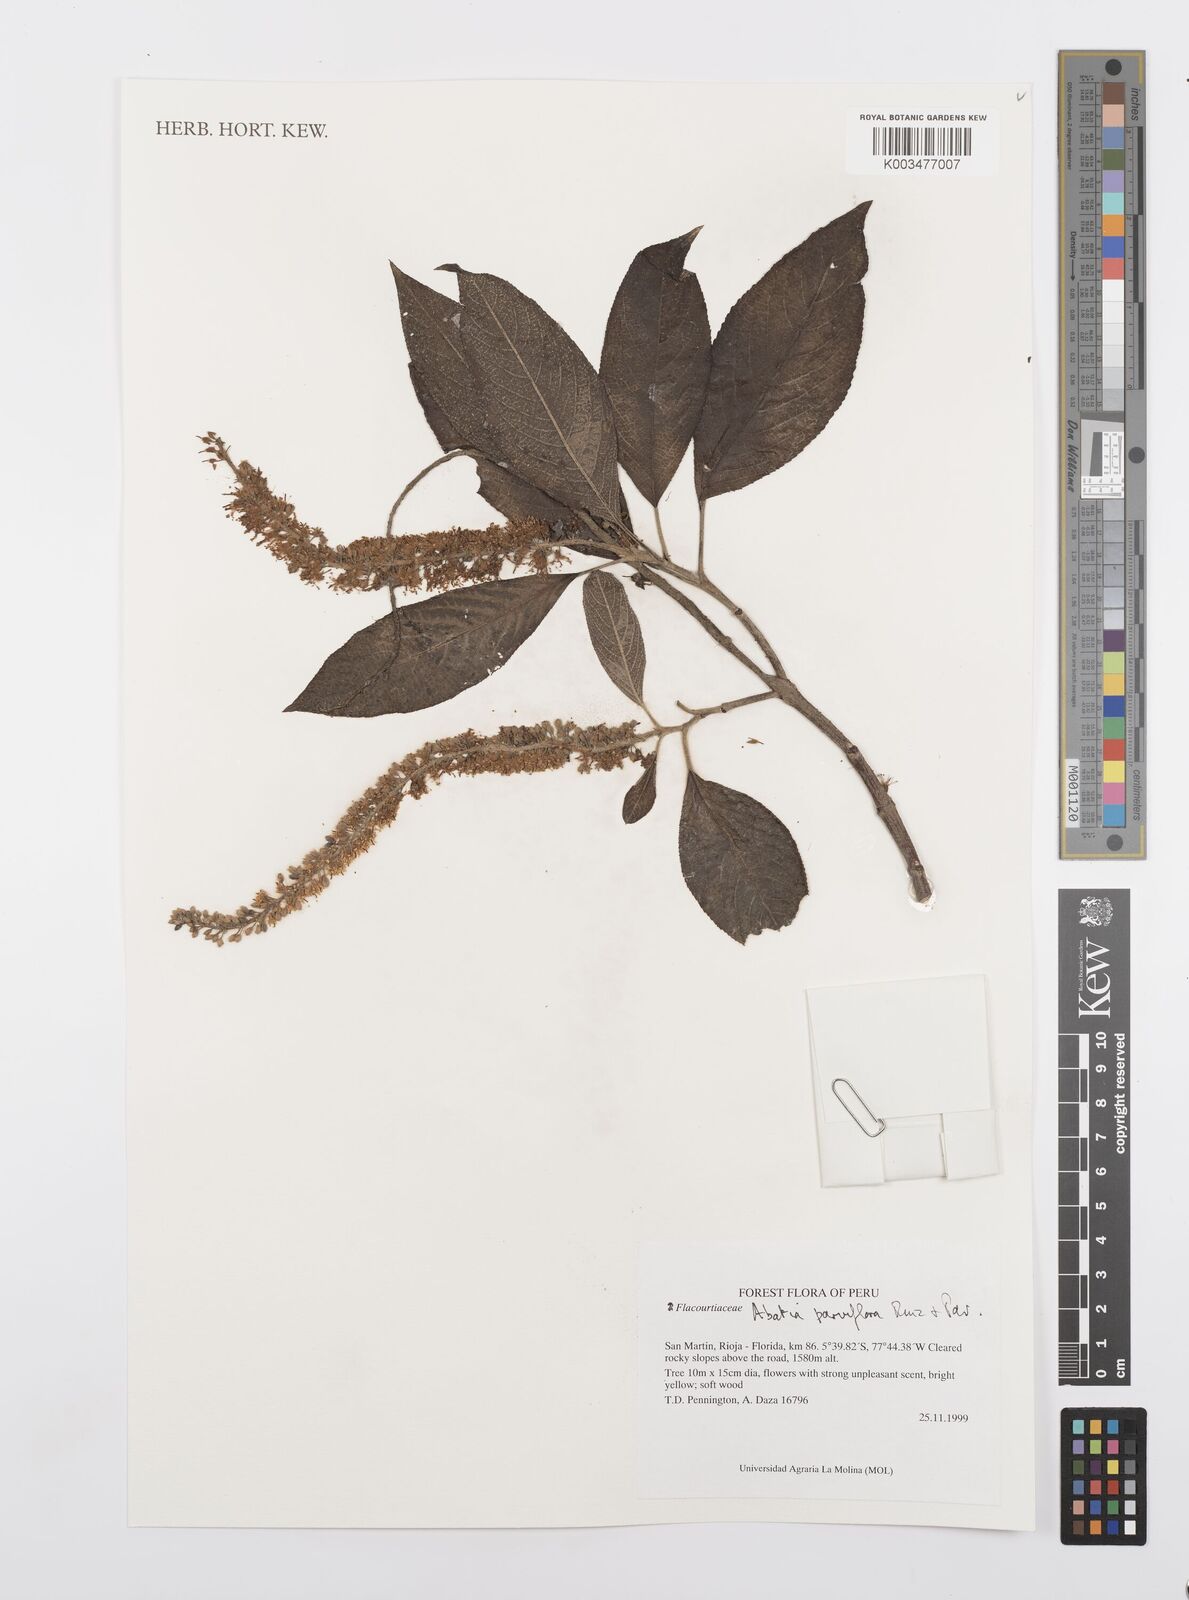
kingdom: Plantae
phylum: Tracheophyta
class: Magnoliopsida
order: Malpighiales
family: Salicaceae
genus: Abatia
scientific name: Abatia parviflora
